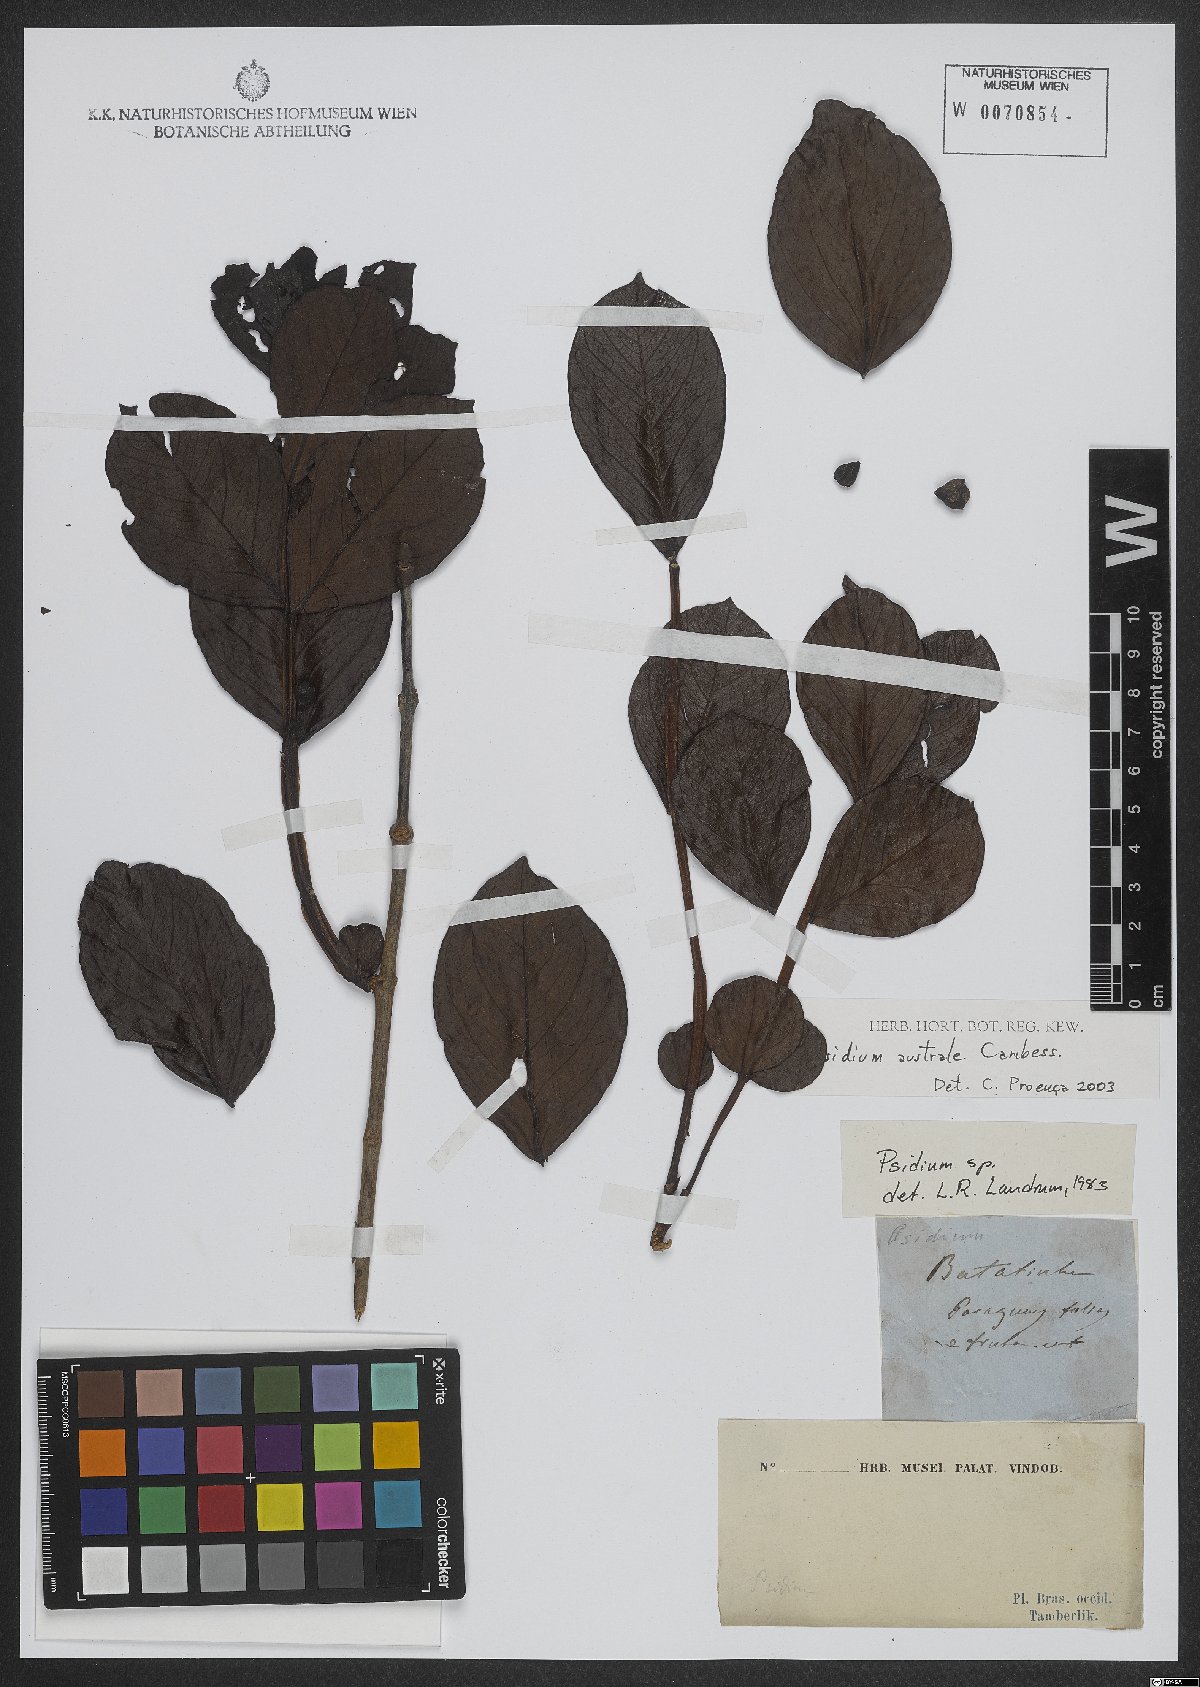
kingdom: Plantae
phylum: Tracheophyta
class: Magnoliopsida
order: Myrtales
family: Myrtaceae
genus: Psidium
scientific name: Psidium australe
